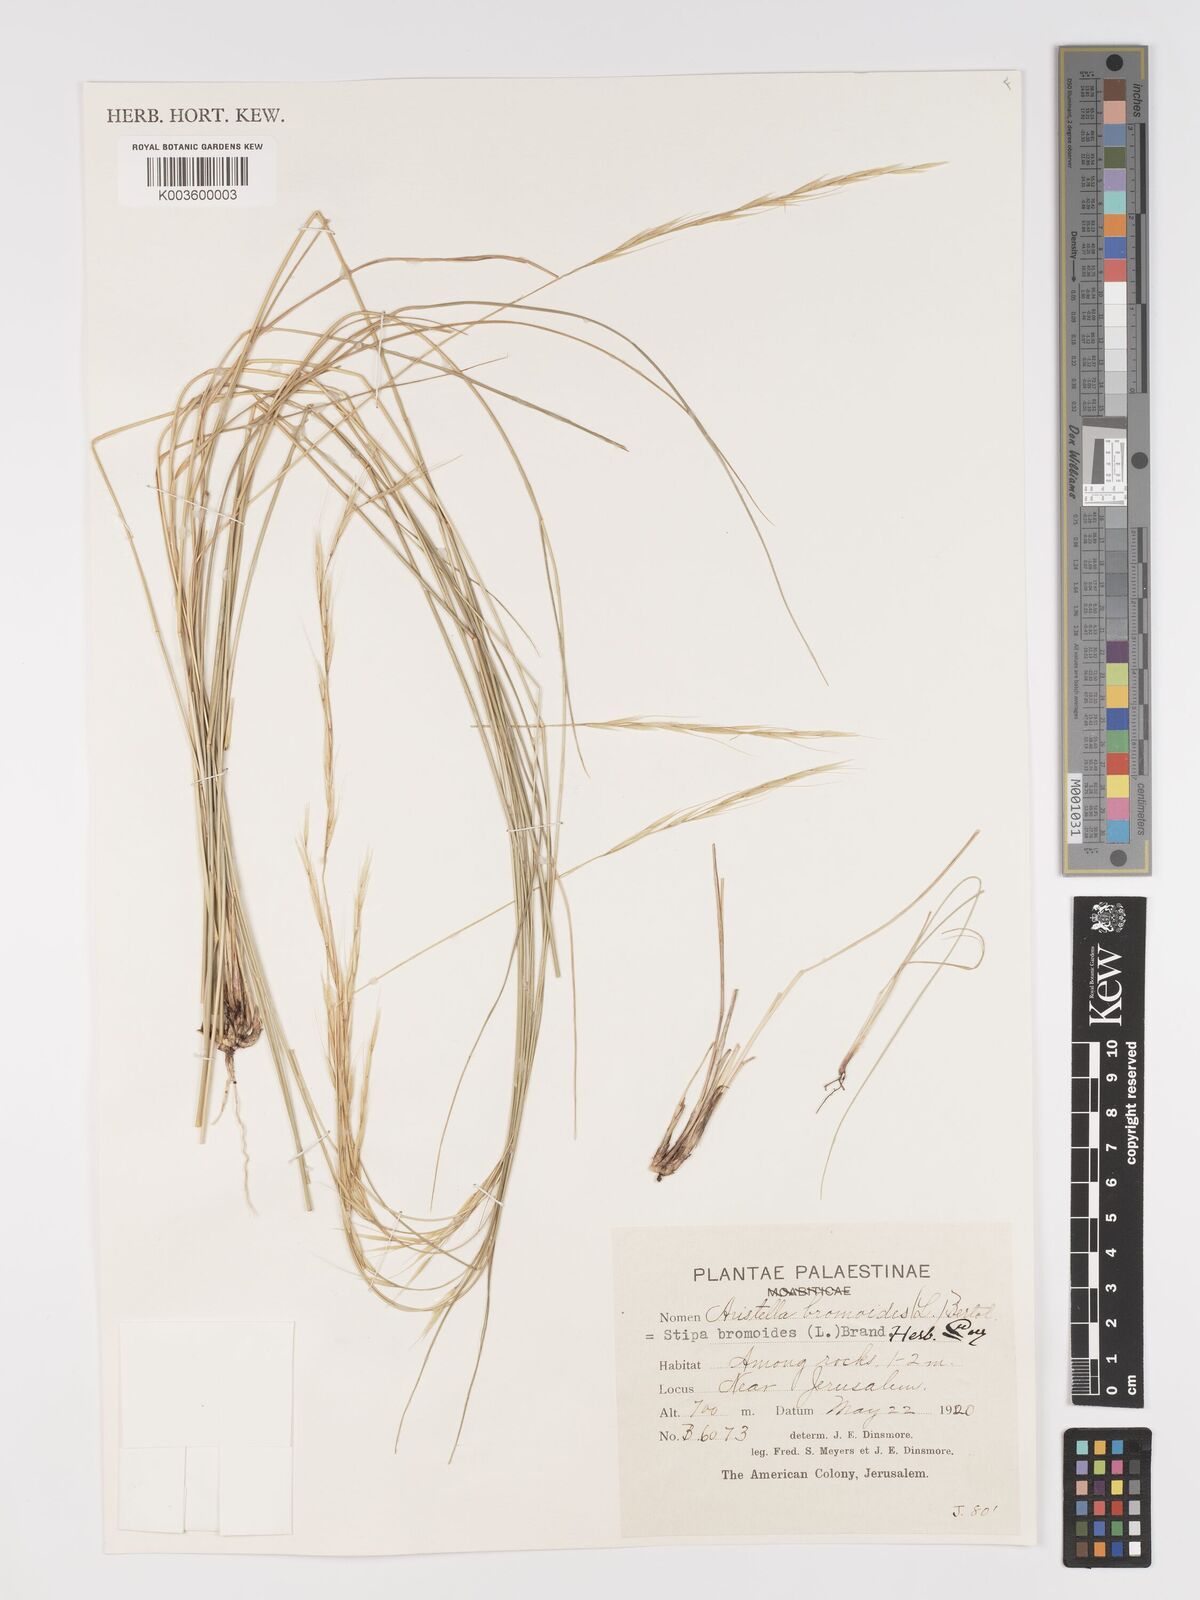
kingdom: Plantae
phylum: Tracheophyta
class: Liliopsida
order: Poales
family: Poaceae
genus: Achnatherum
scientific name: Achnatherum bromoides
